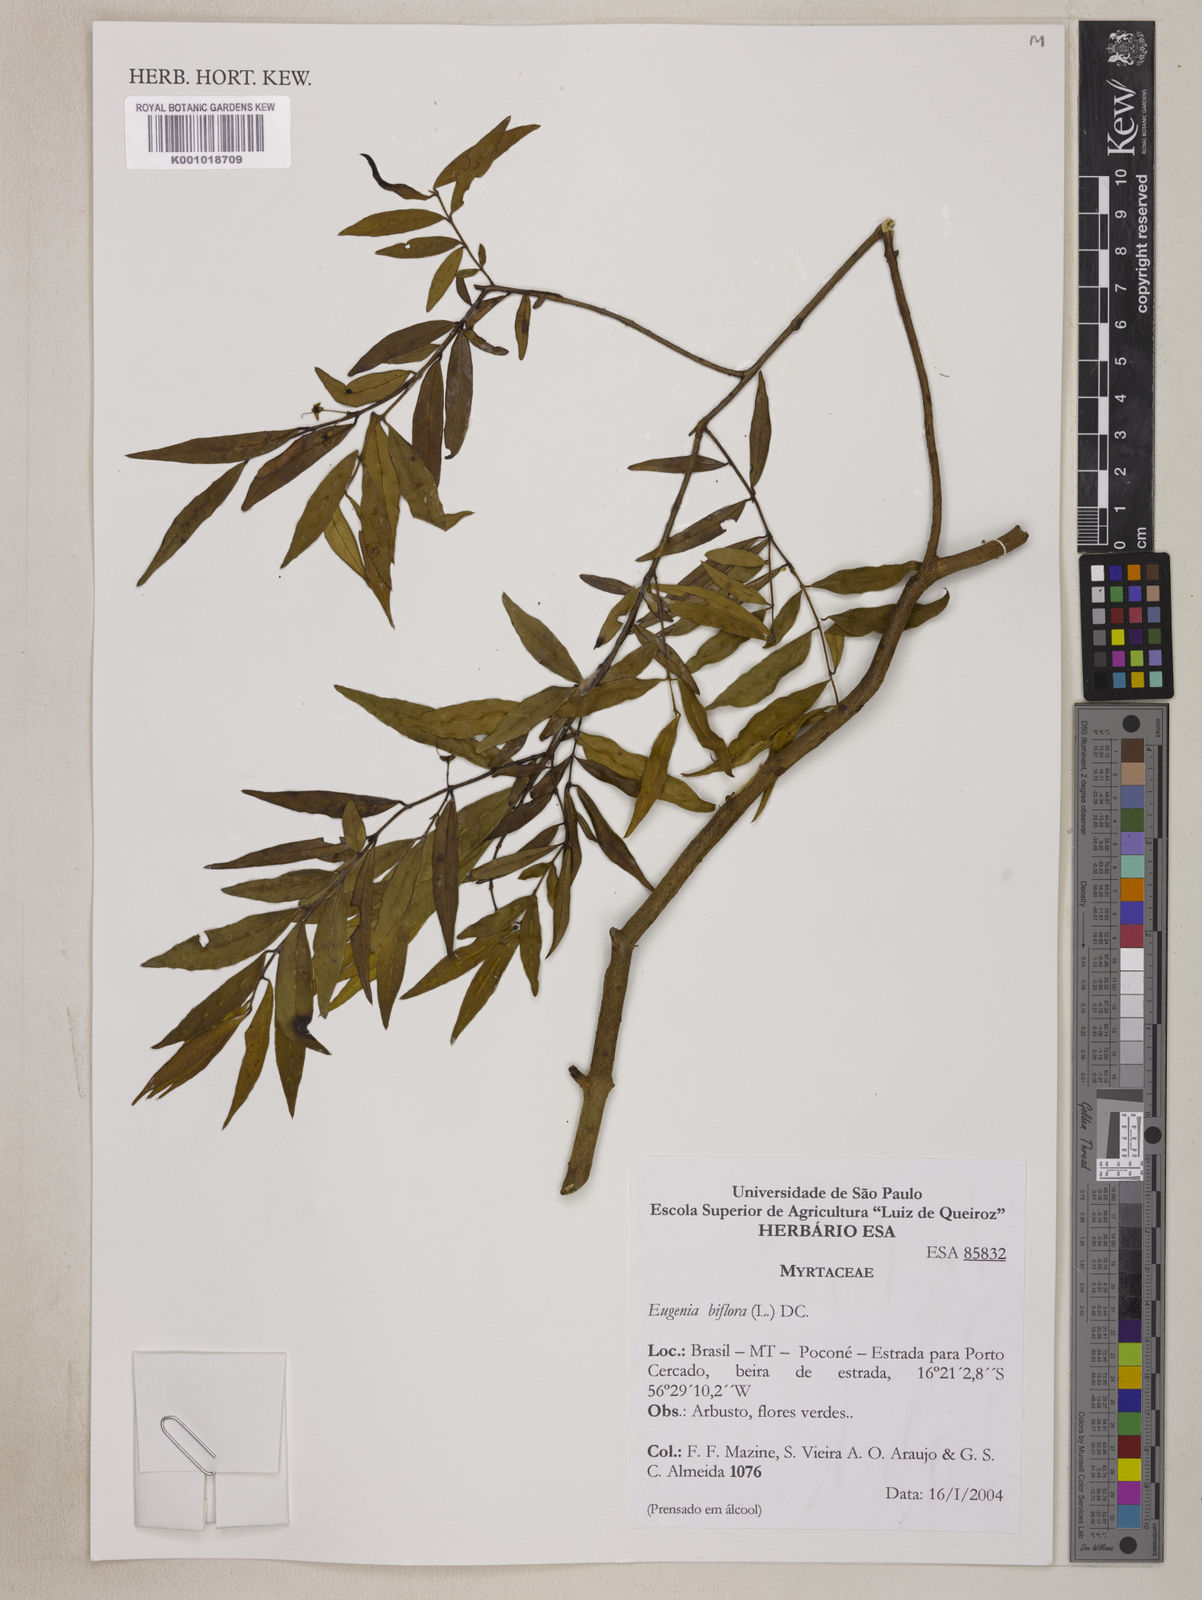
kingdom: Plantae
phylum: Tracheophyta
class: Magnoliopsida
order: Myrtales
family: Myrtaceae
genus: Eugenia
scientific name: Eugenia biflora
